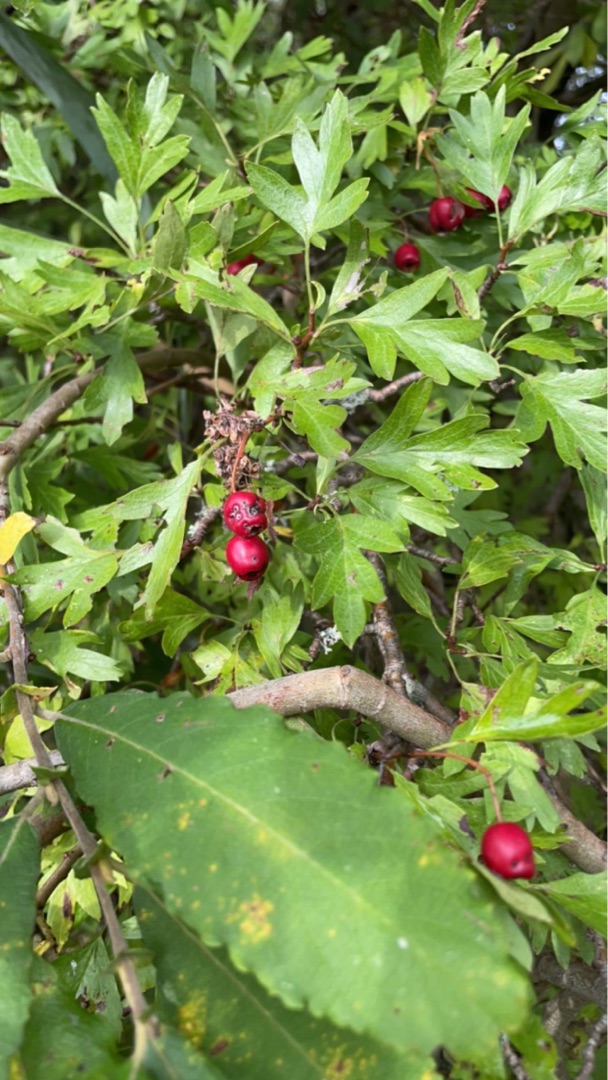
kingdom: Plantae
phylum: Tracheophyta
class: Magnoliopsida
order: Rosales
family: Rosaceae
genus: Crataegus
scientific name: Crataegus monogyna
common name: Engriflet hvidtjørn
